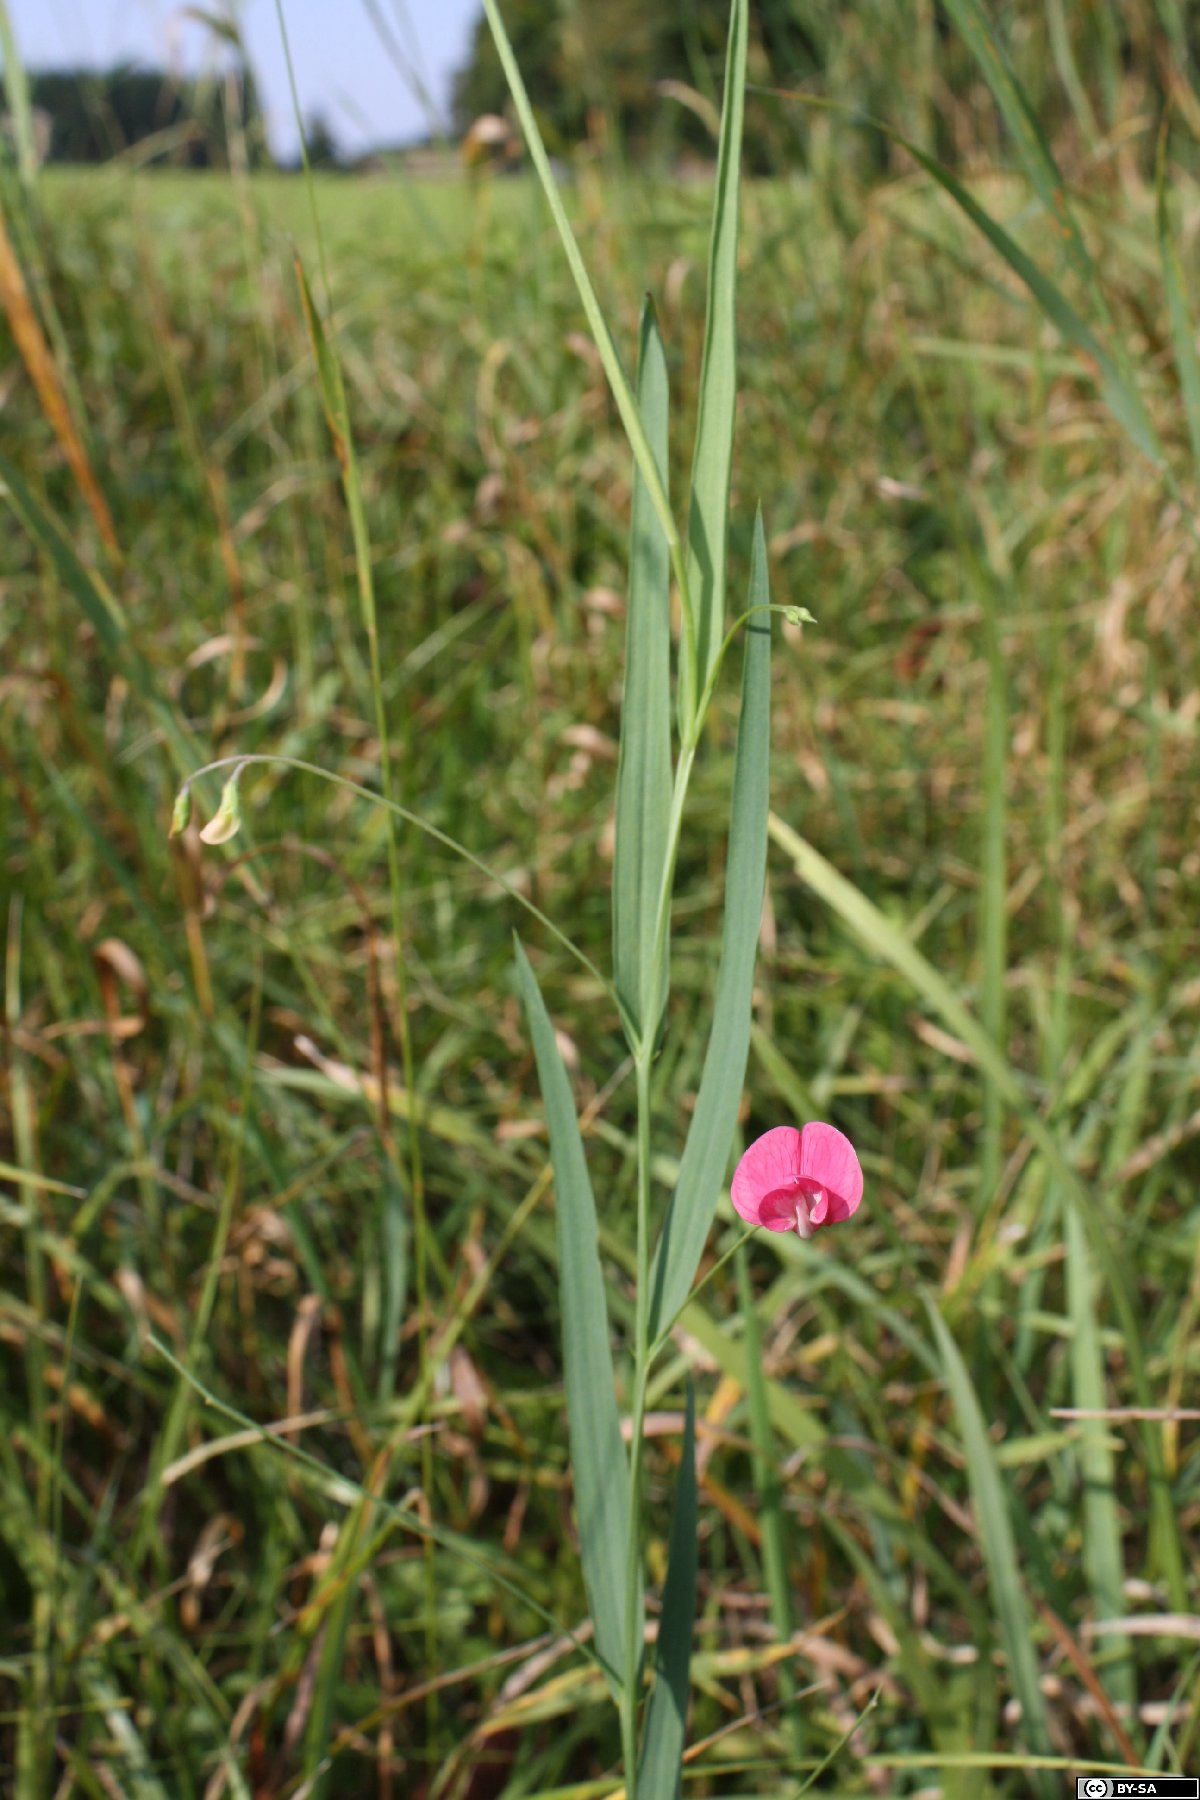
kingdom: Plantae
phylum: Tracheophyta
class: Magnoliopsida
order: Fabales
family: Fabaceae
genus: Lathyrus
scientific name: Lathyrus nissolia
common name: Grass vetchling
